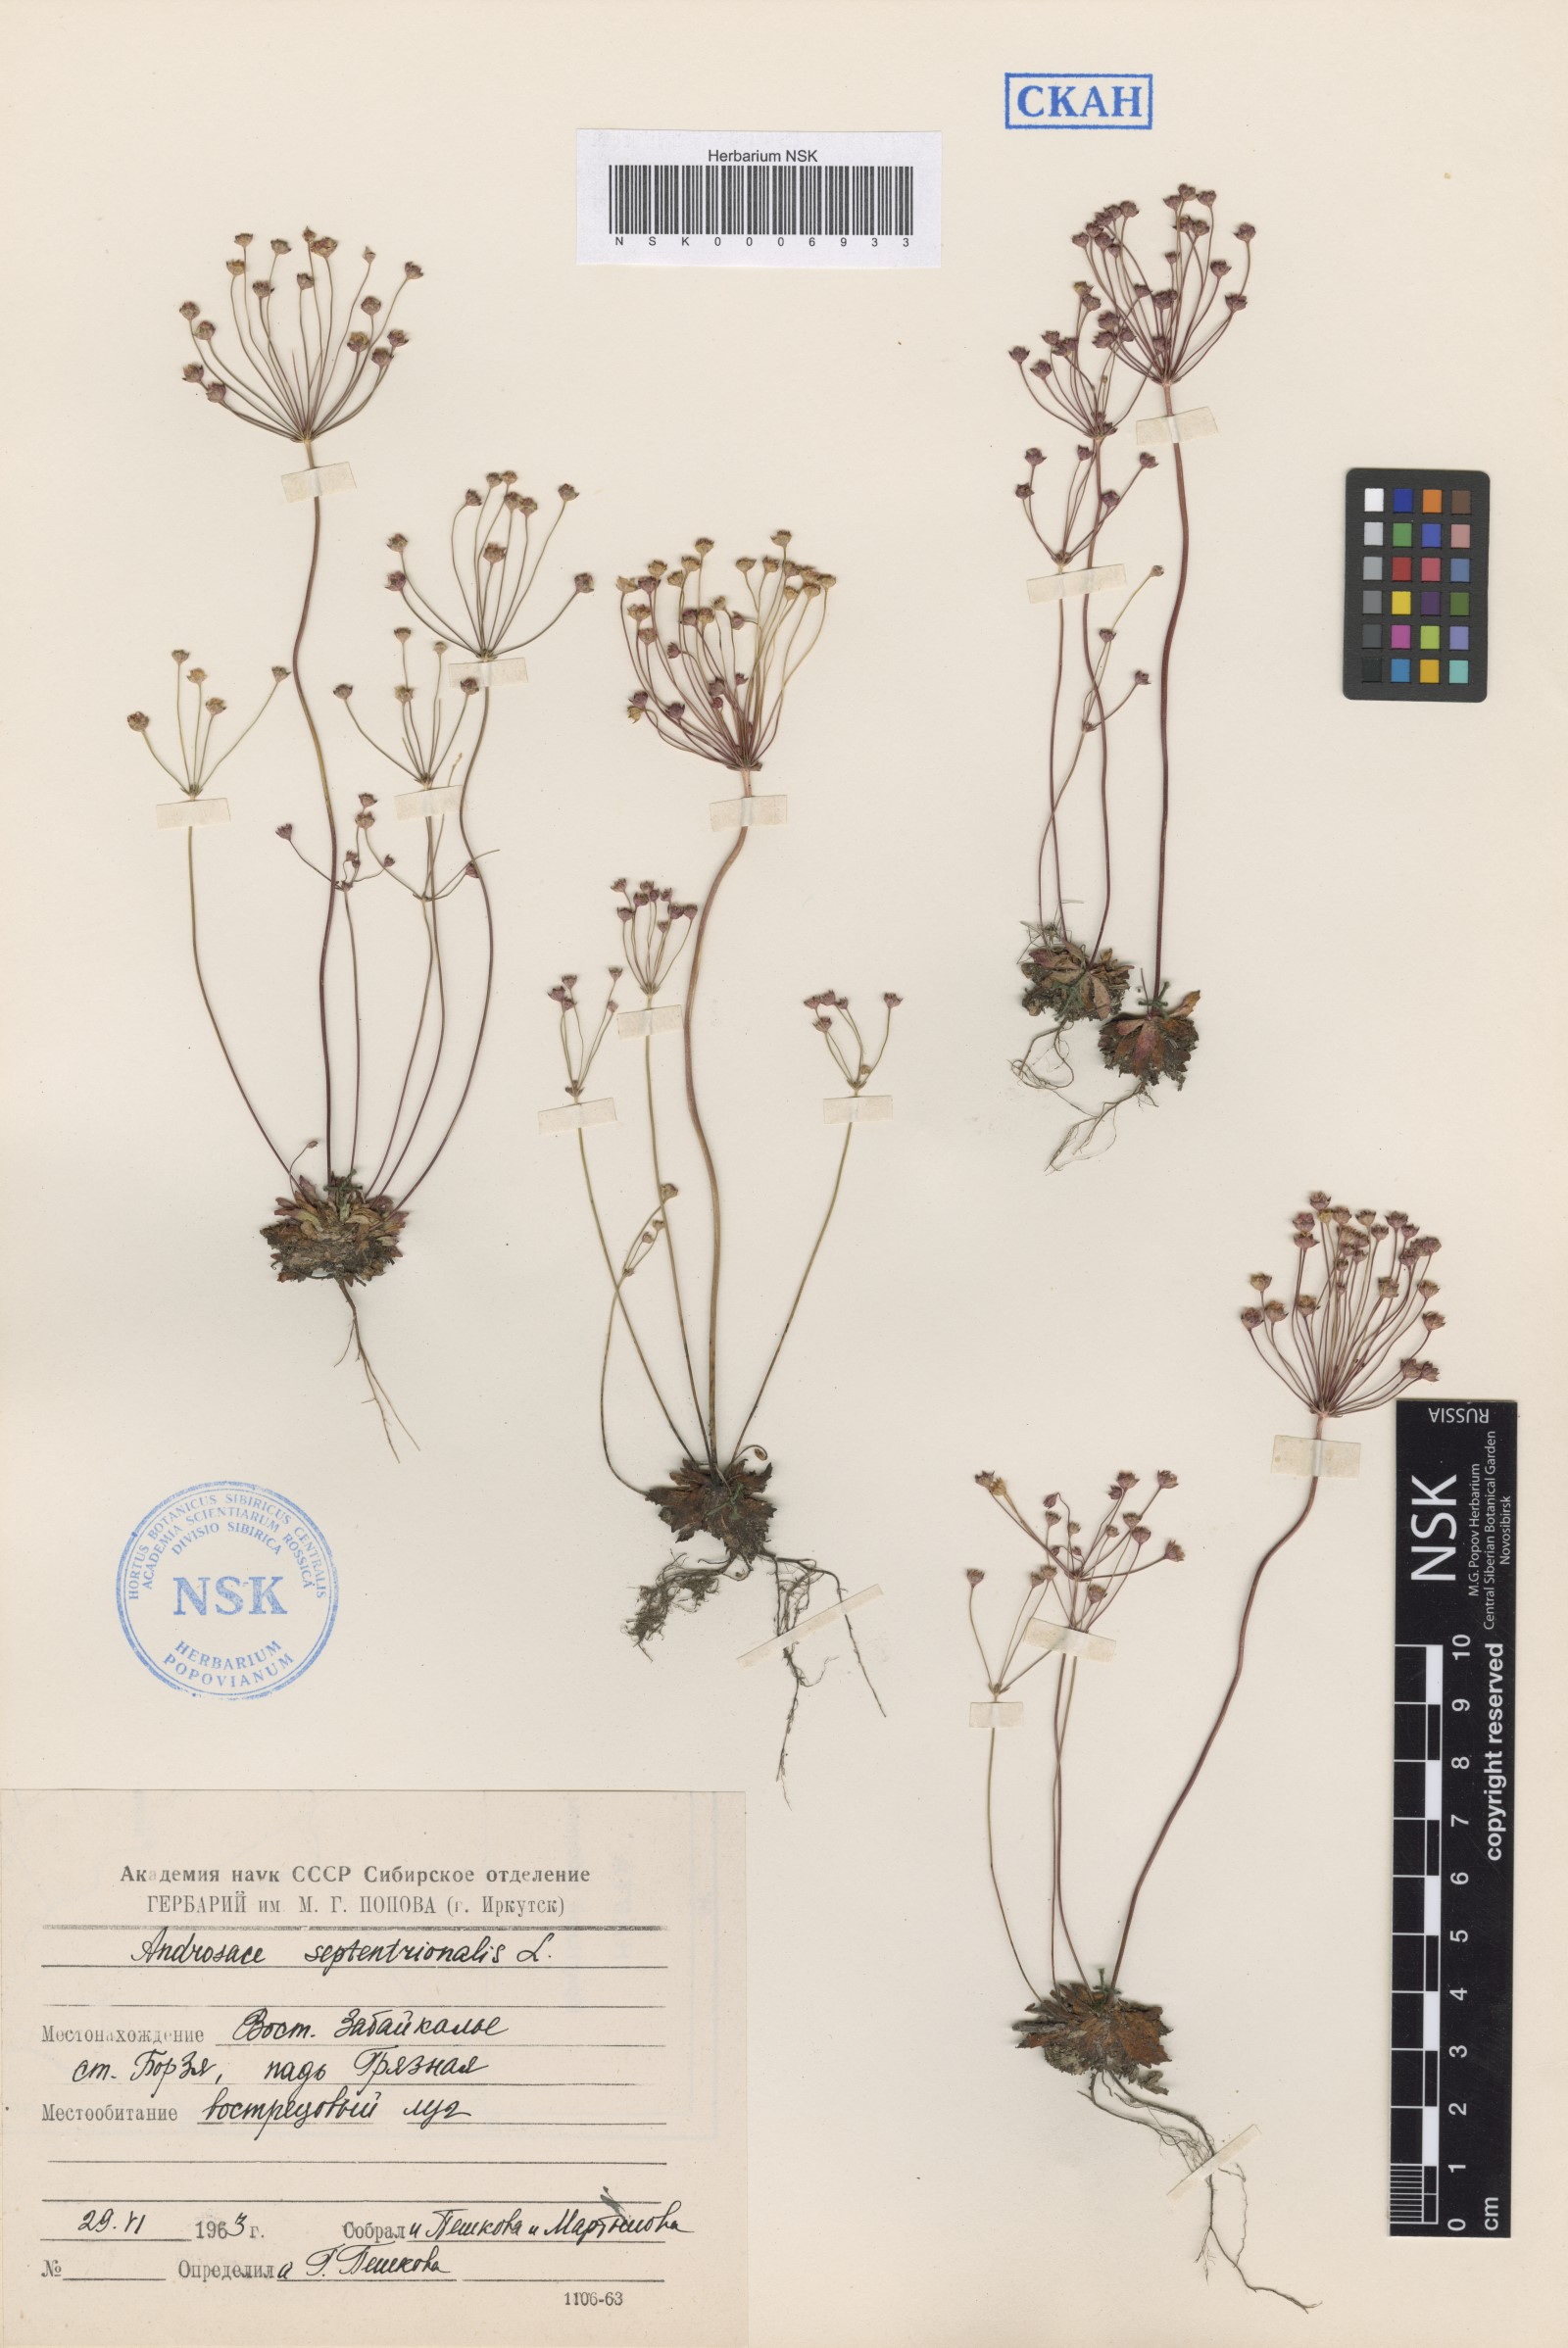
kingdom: Plantae
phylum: Tracheophyta
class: Magnoliopsida
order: Ericales
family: Primulaceae
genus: Androsace
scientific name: Androsace septentrionalis
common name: Hairy northern fairy-candelabra
